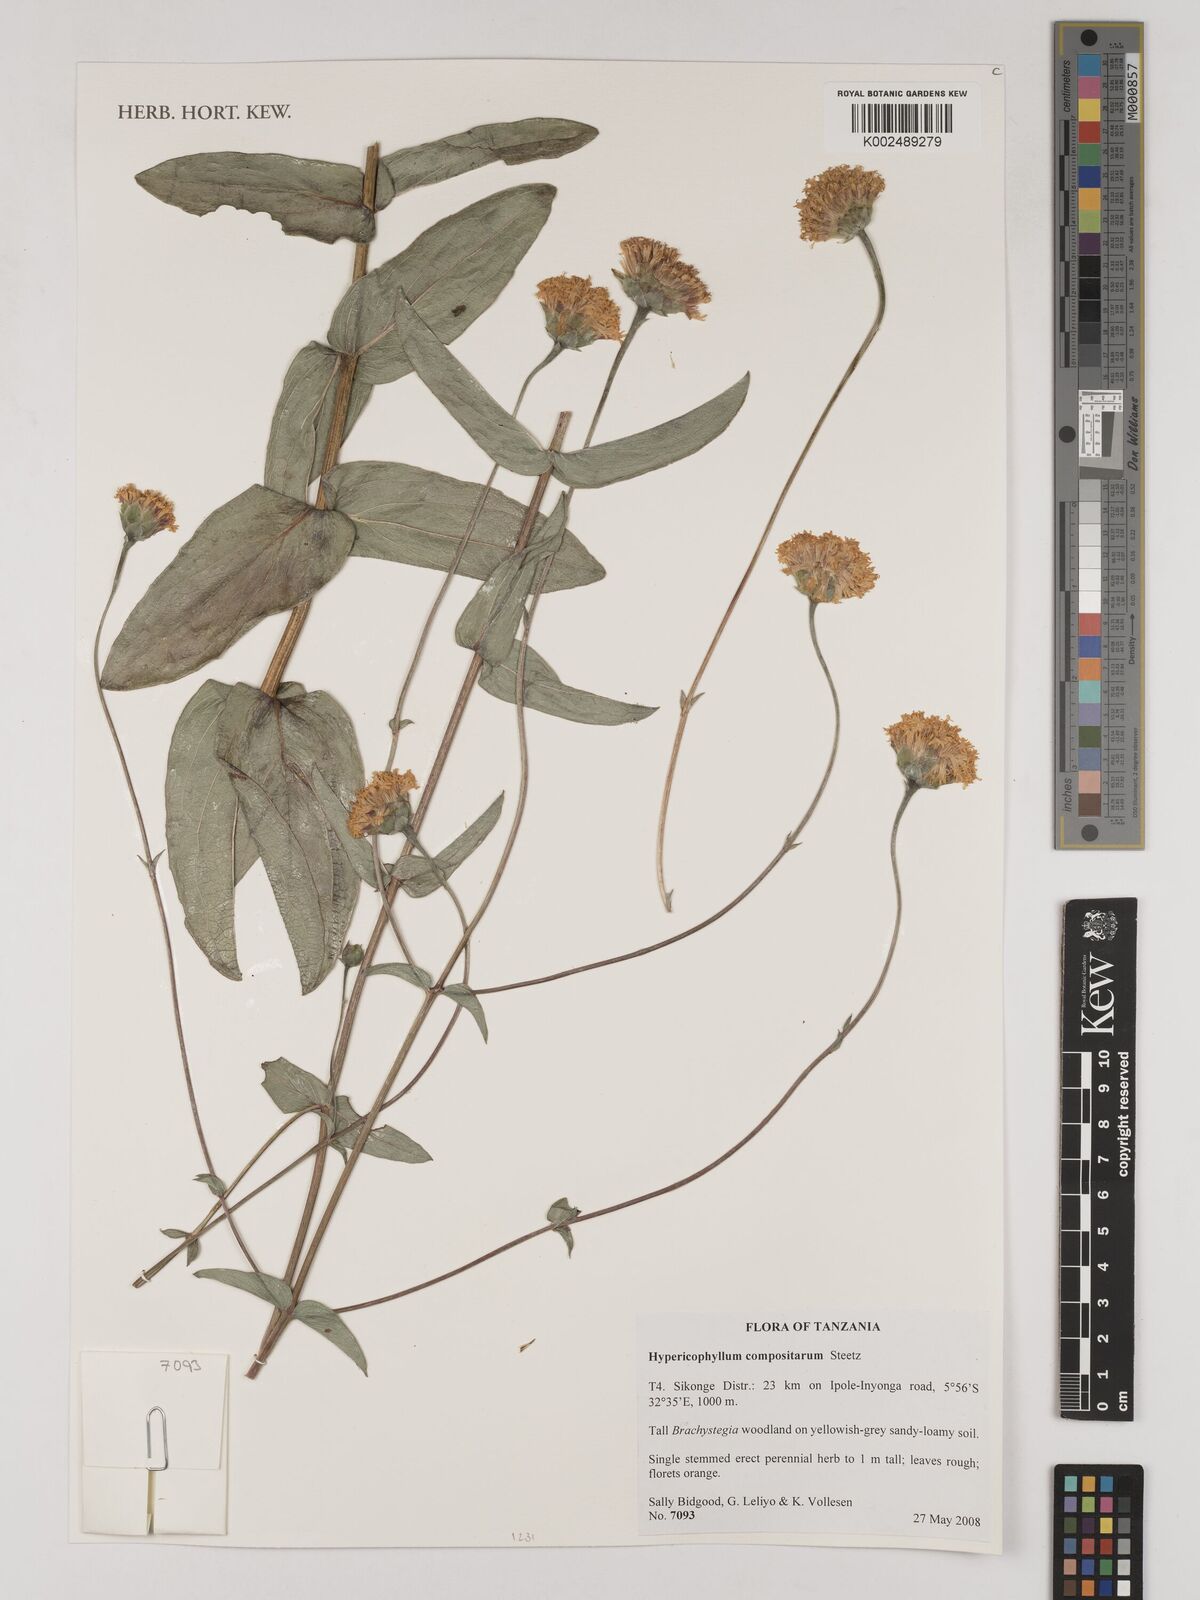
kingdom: Plantae
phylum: Tracheophyta
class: Magnoliopsida
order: Asterales
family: Asteraceae
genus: Hypericophyllum
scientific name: Hypericophyllum compositarum
